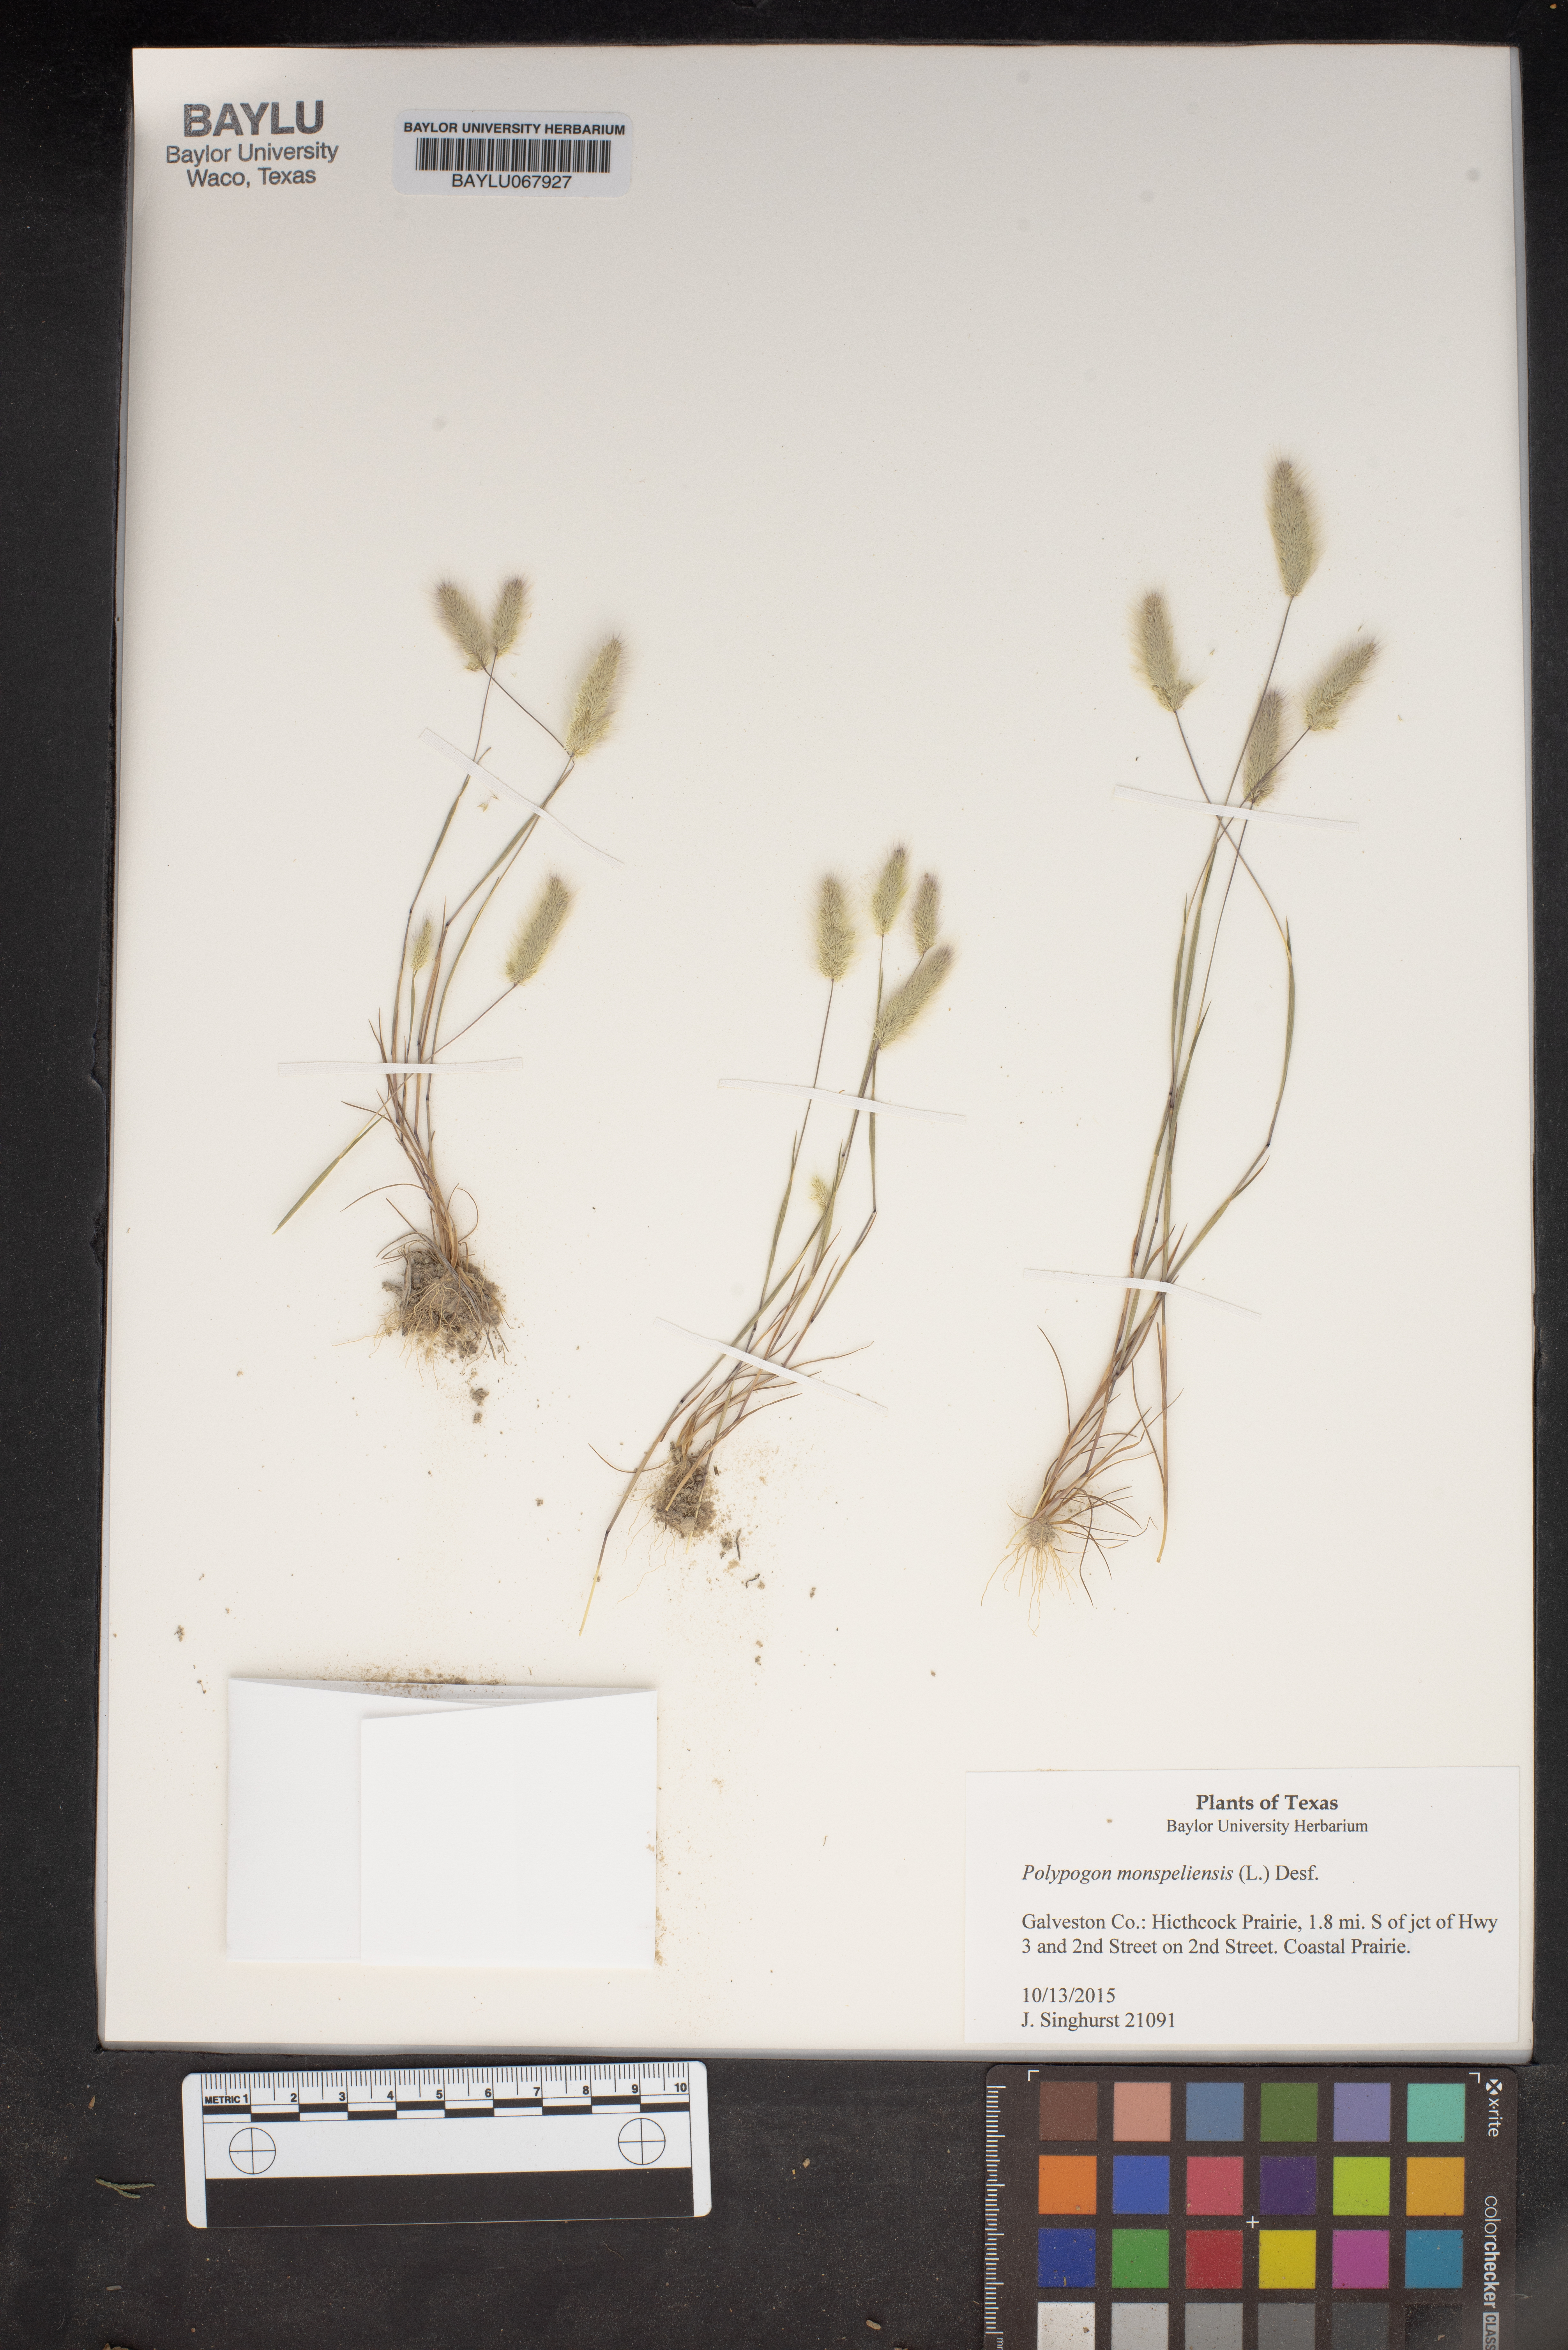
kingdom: Plantae
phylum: Tracheophyta
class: Liliopsida
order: Poales
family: Poaceae
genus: Polypogon
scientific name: Polypogon monspeliensis
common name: Annual rabbitsfoot grass
